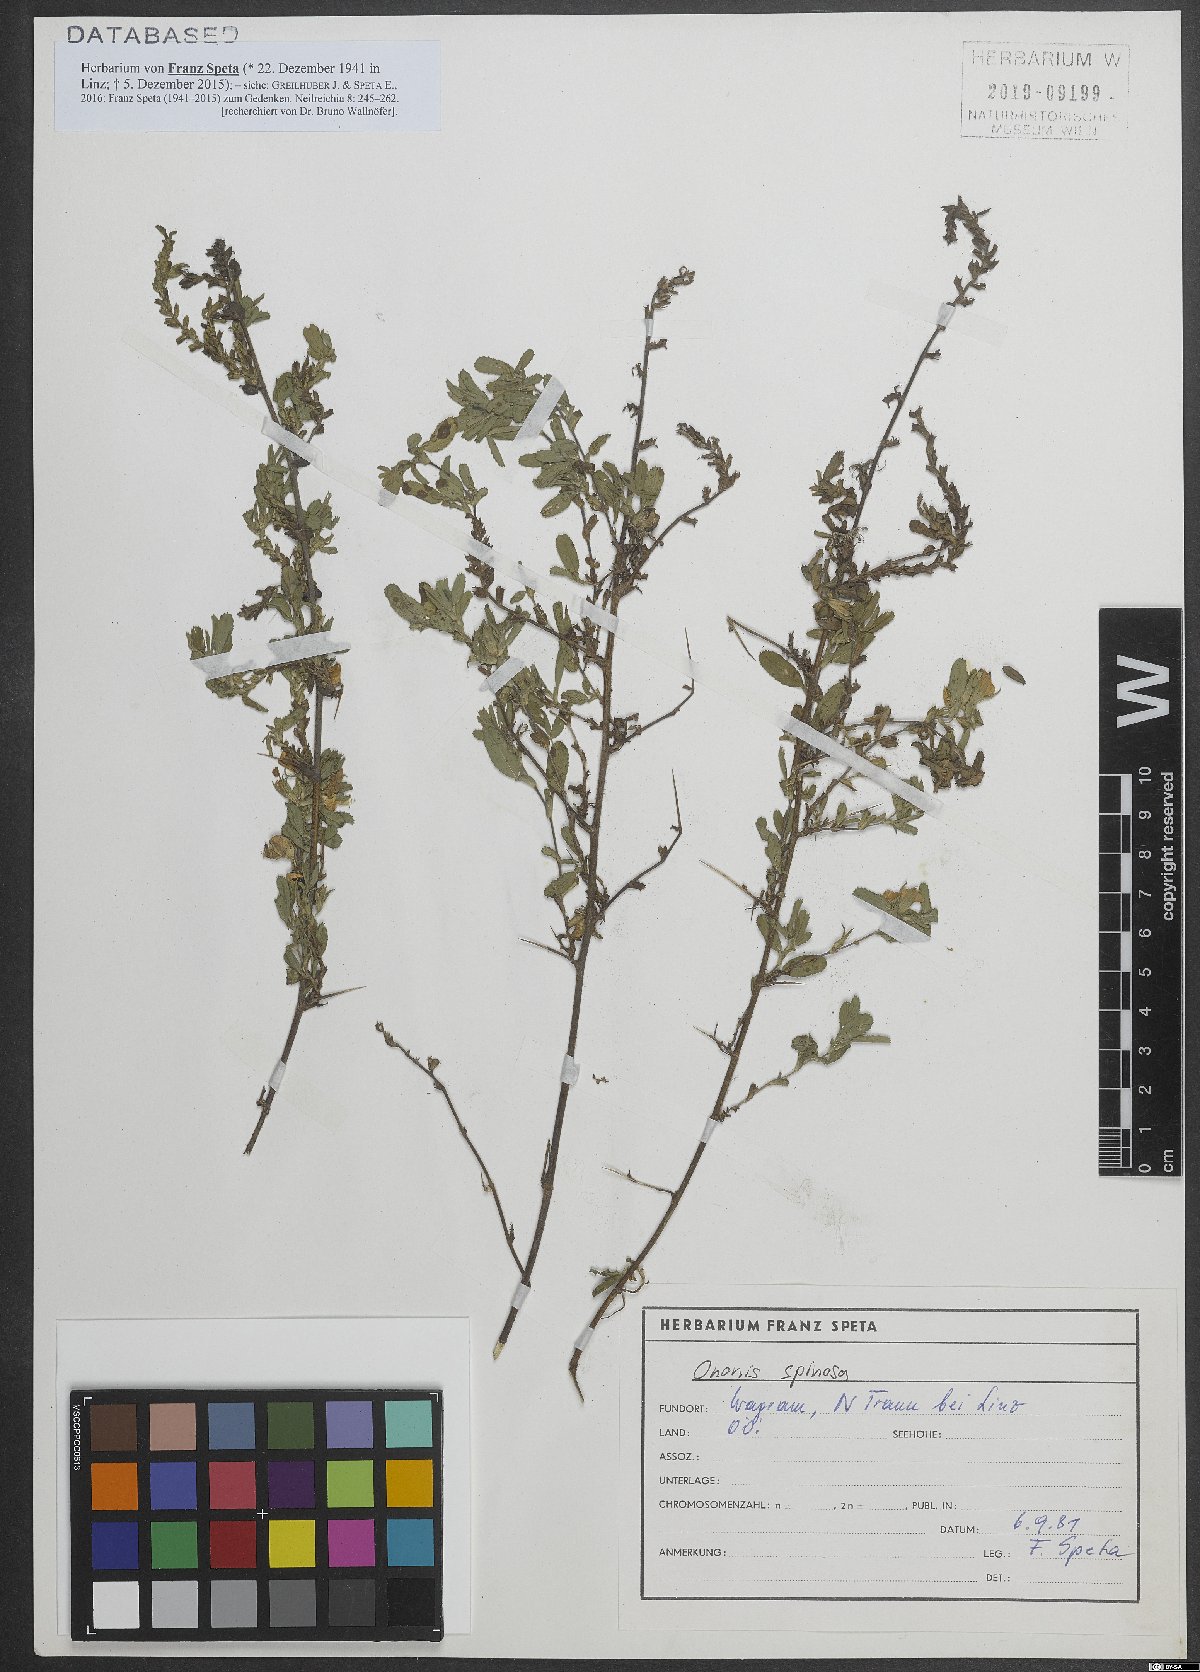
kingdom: Plantae
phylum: Tracheophyta
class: Magnoliopsida
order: Fabales
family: Fabaceae
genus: Ononis
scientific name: Ononis spinosa
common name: Spiny restharrow
